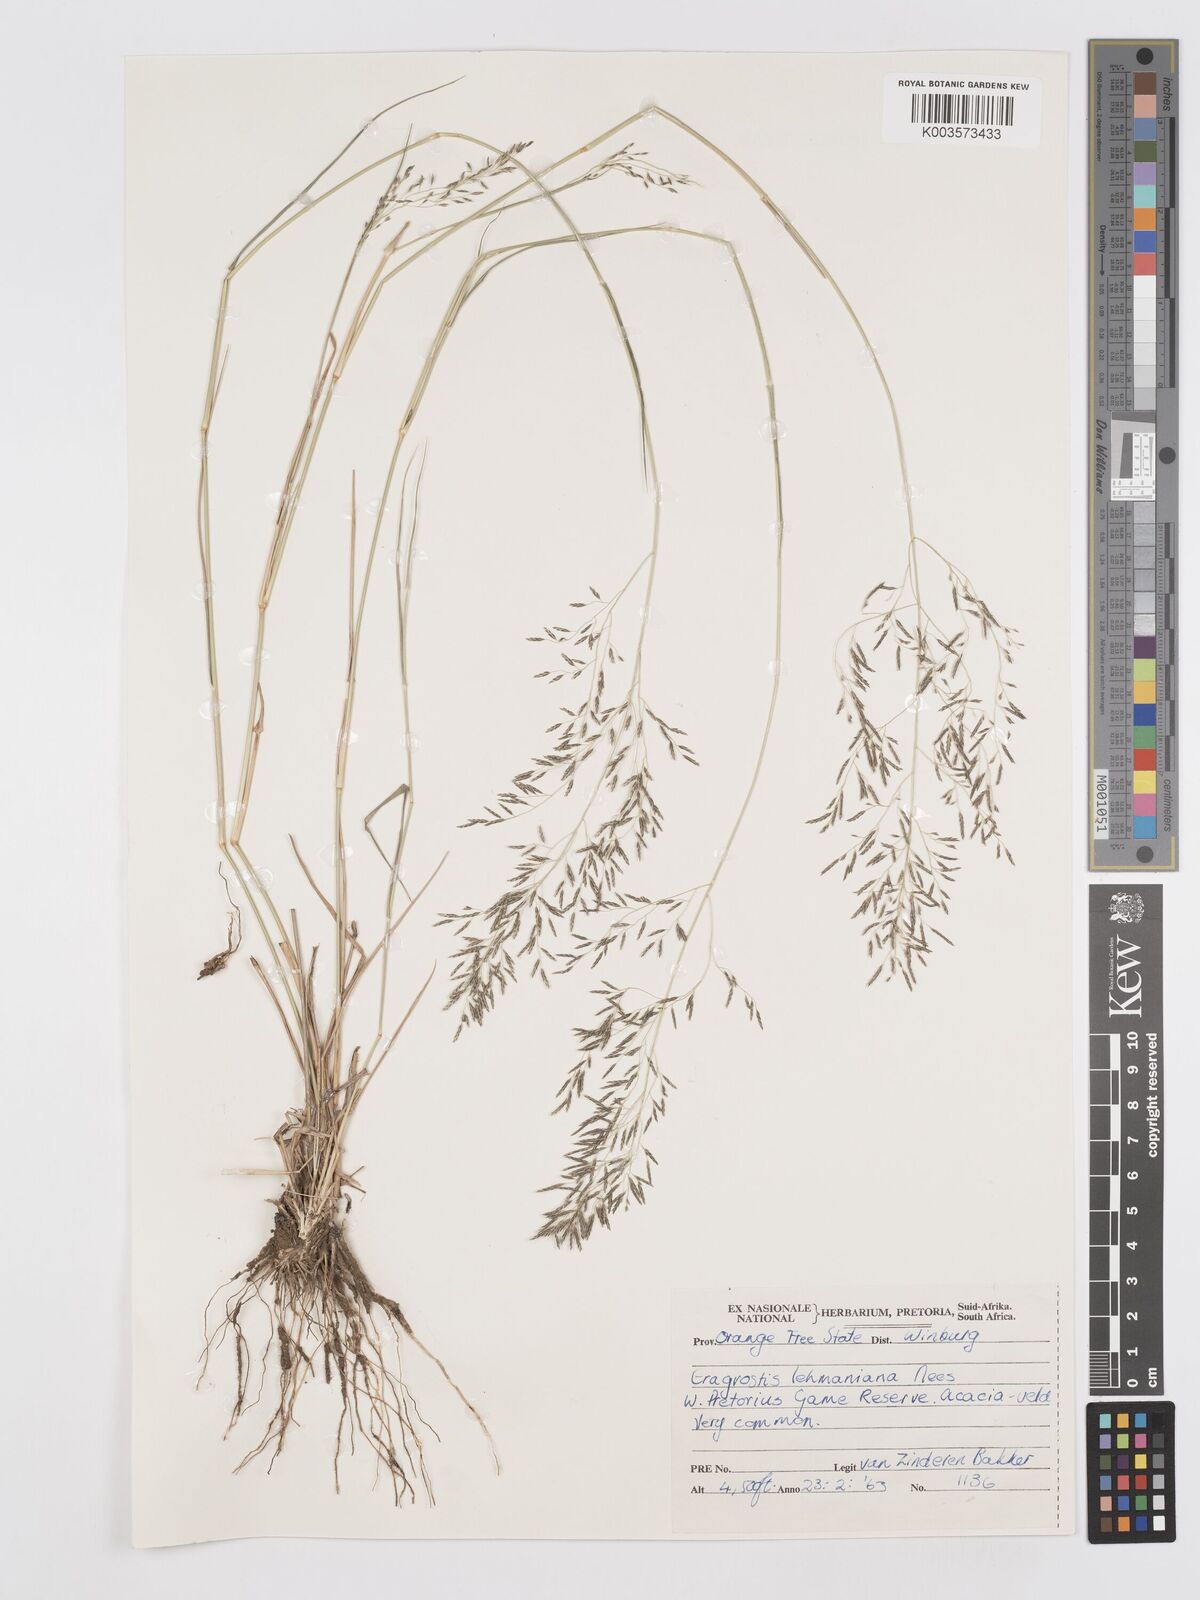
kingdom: Plantae
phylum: Tracheophyta
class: Liliopsida
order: Poales
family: Poaceae
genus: Eragrostis
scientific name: Eragrostis lehmanniana
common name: Lehmann lovegrass
